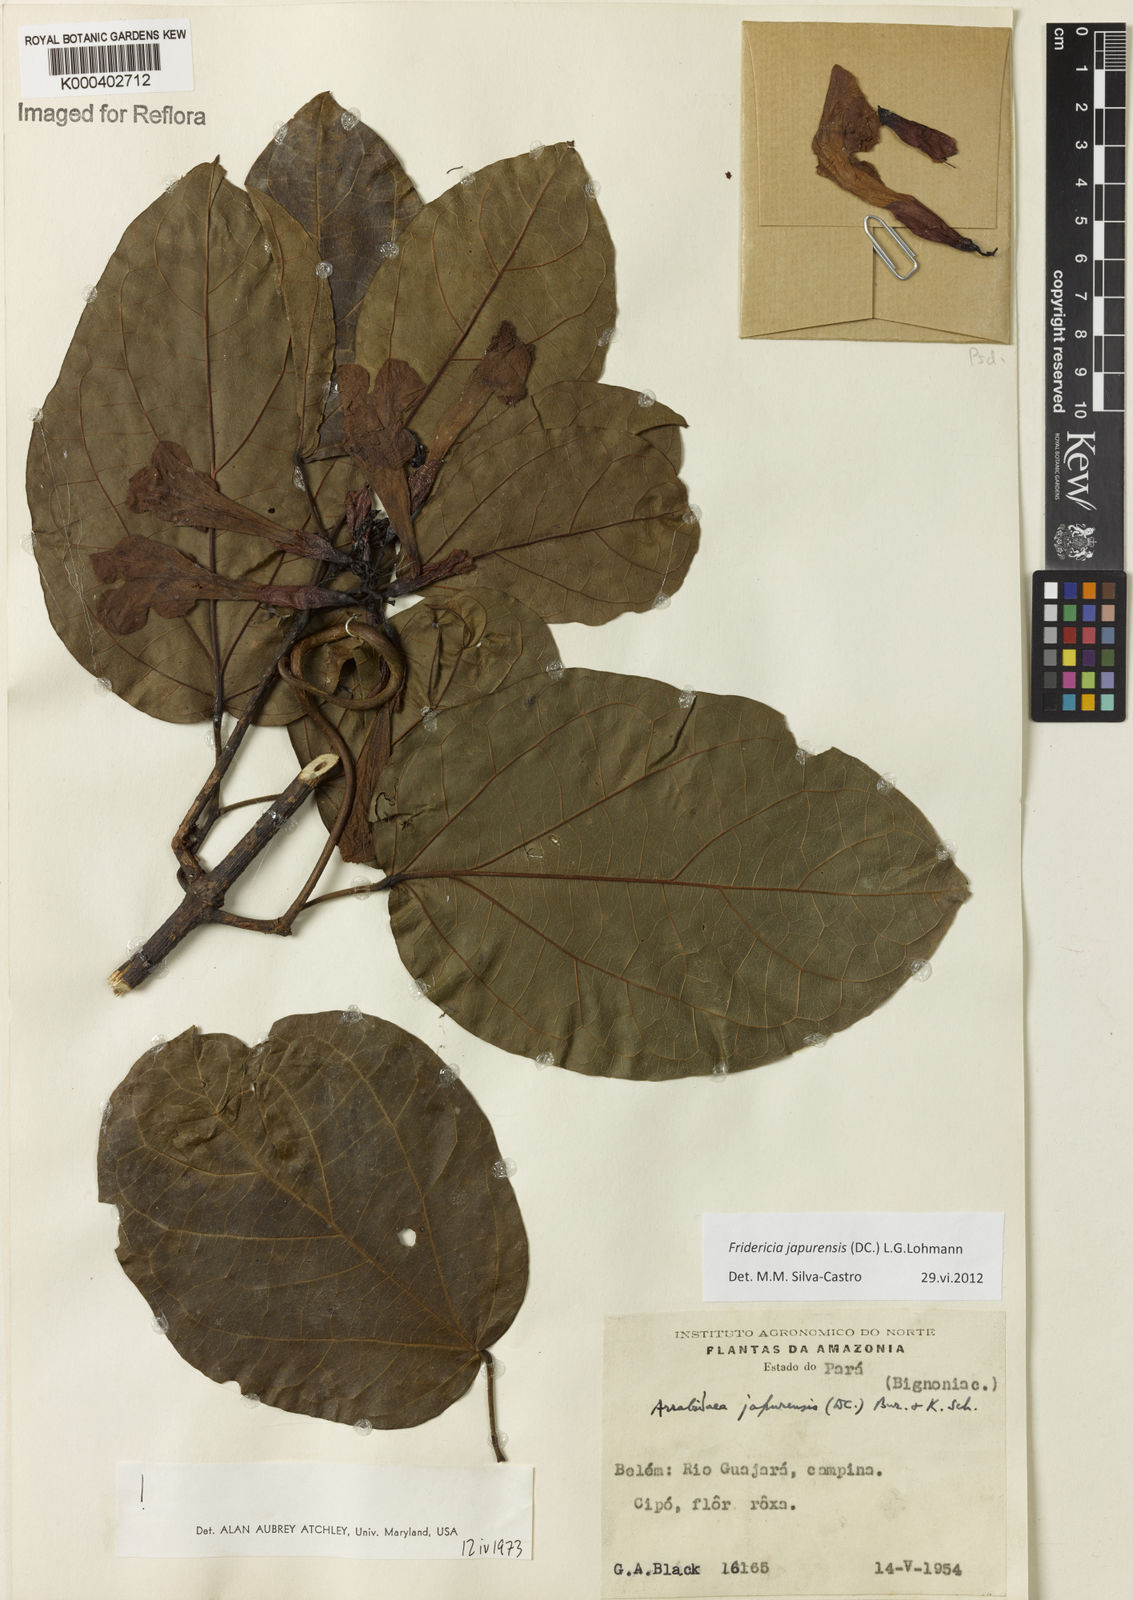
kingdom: Plantae
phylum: Tracheophyta
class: Magnoliopsida
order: Lamiales
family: Bignoniaceae
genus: Fridericia
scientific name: Fridericia japurensis
